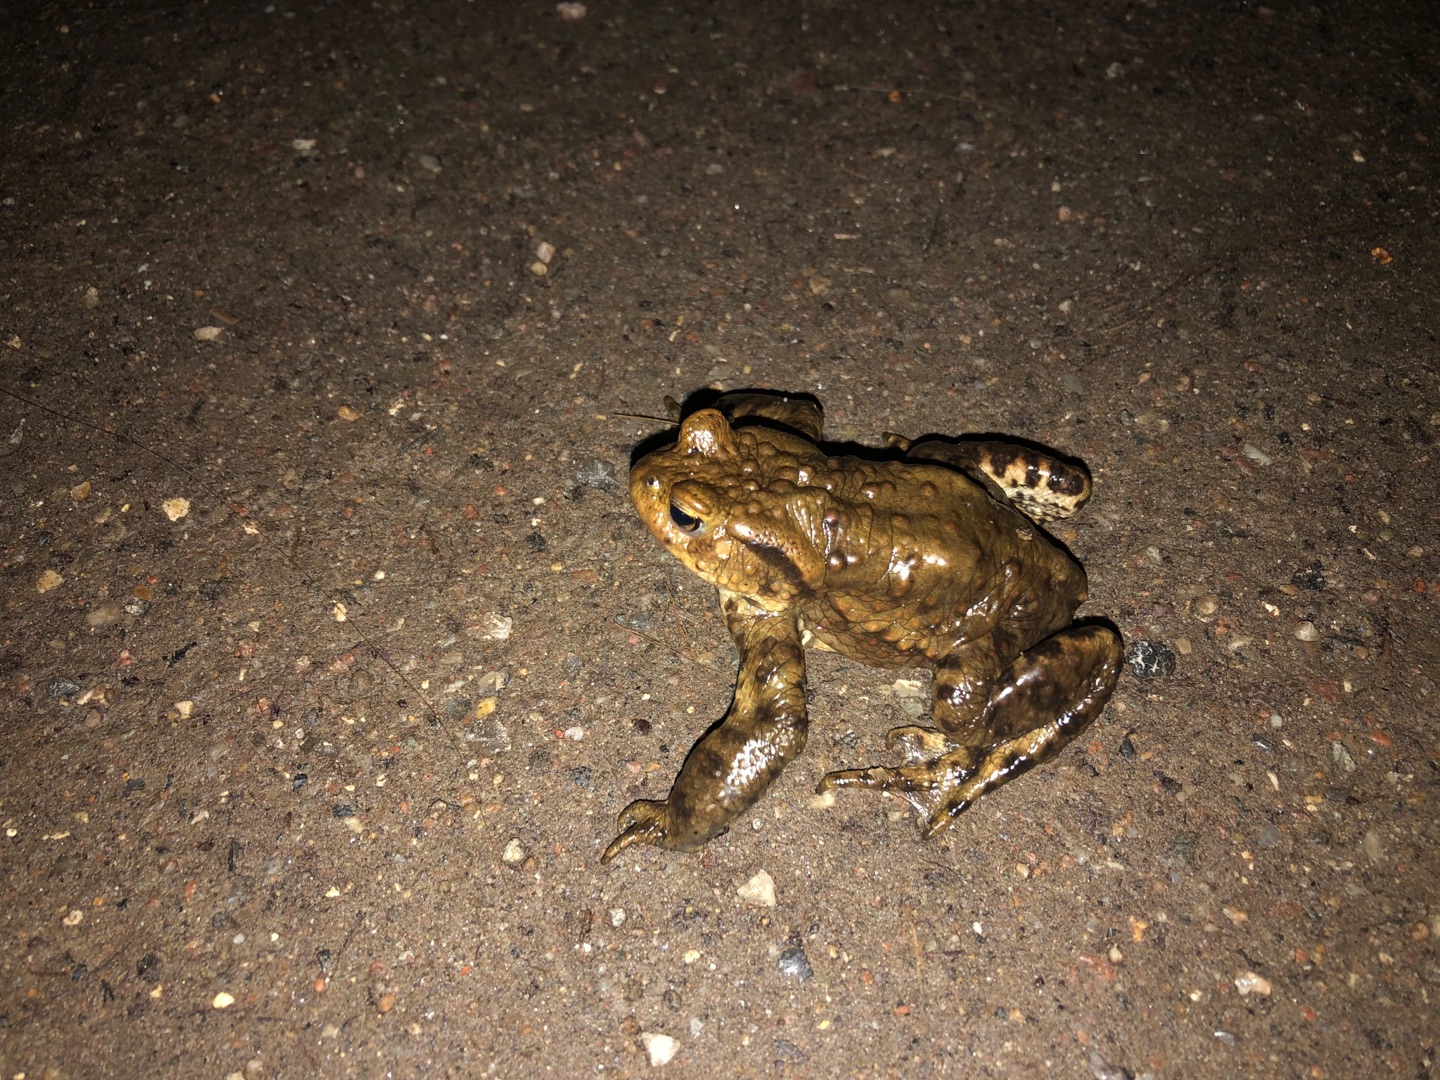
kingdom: Animalia
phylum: Chordata
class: Amphibia
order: Anura
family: Bufonidae
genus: Bufo
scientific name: Bufo bufo
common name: Skrubtudse
